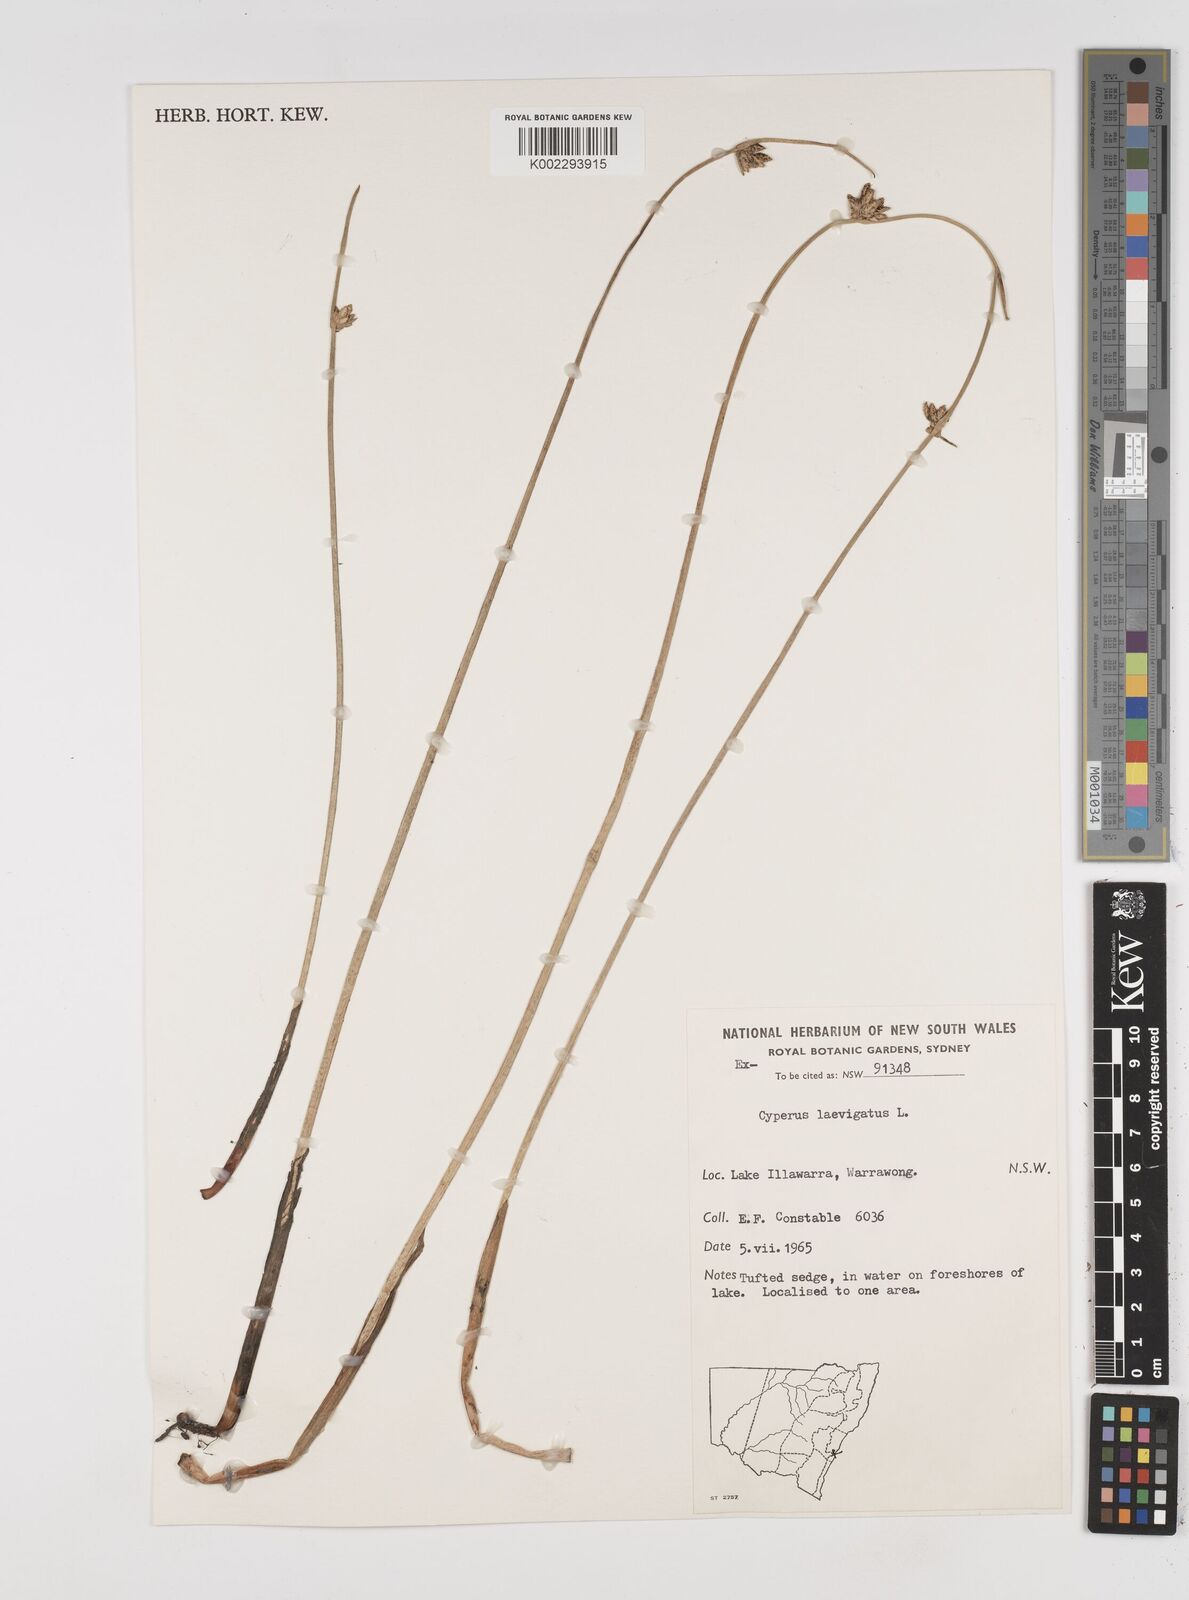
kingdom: Plantae
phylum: Tracheophyta
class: Liliopsida
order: Poales
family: Cyperaceae
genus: Cyperus
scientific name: Cyperus laevigatus
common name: Smooth flat sedge
